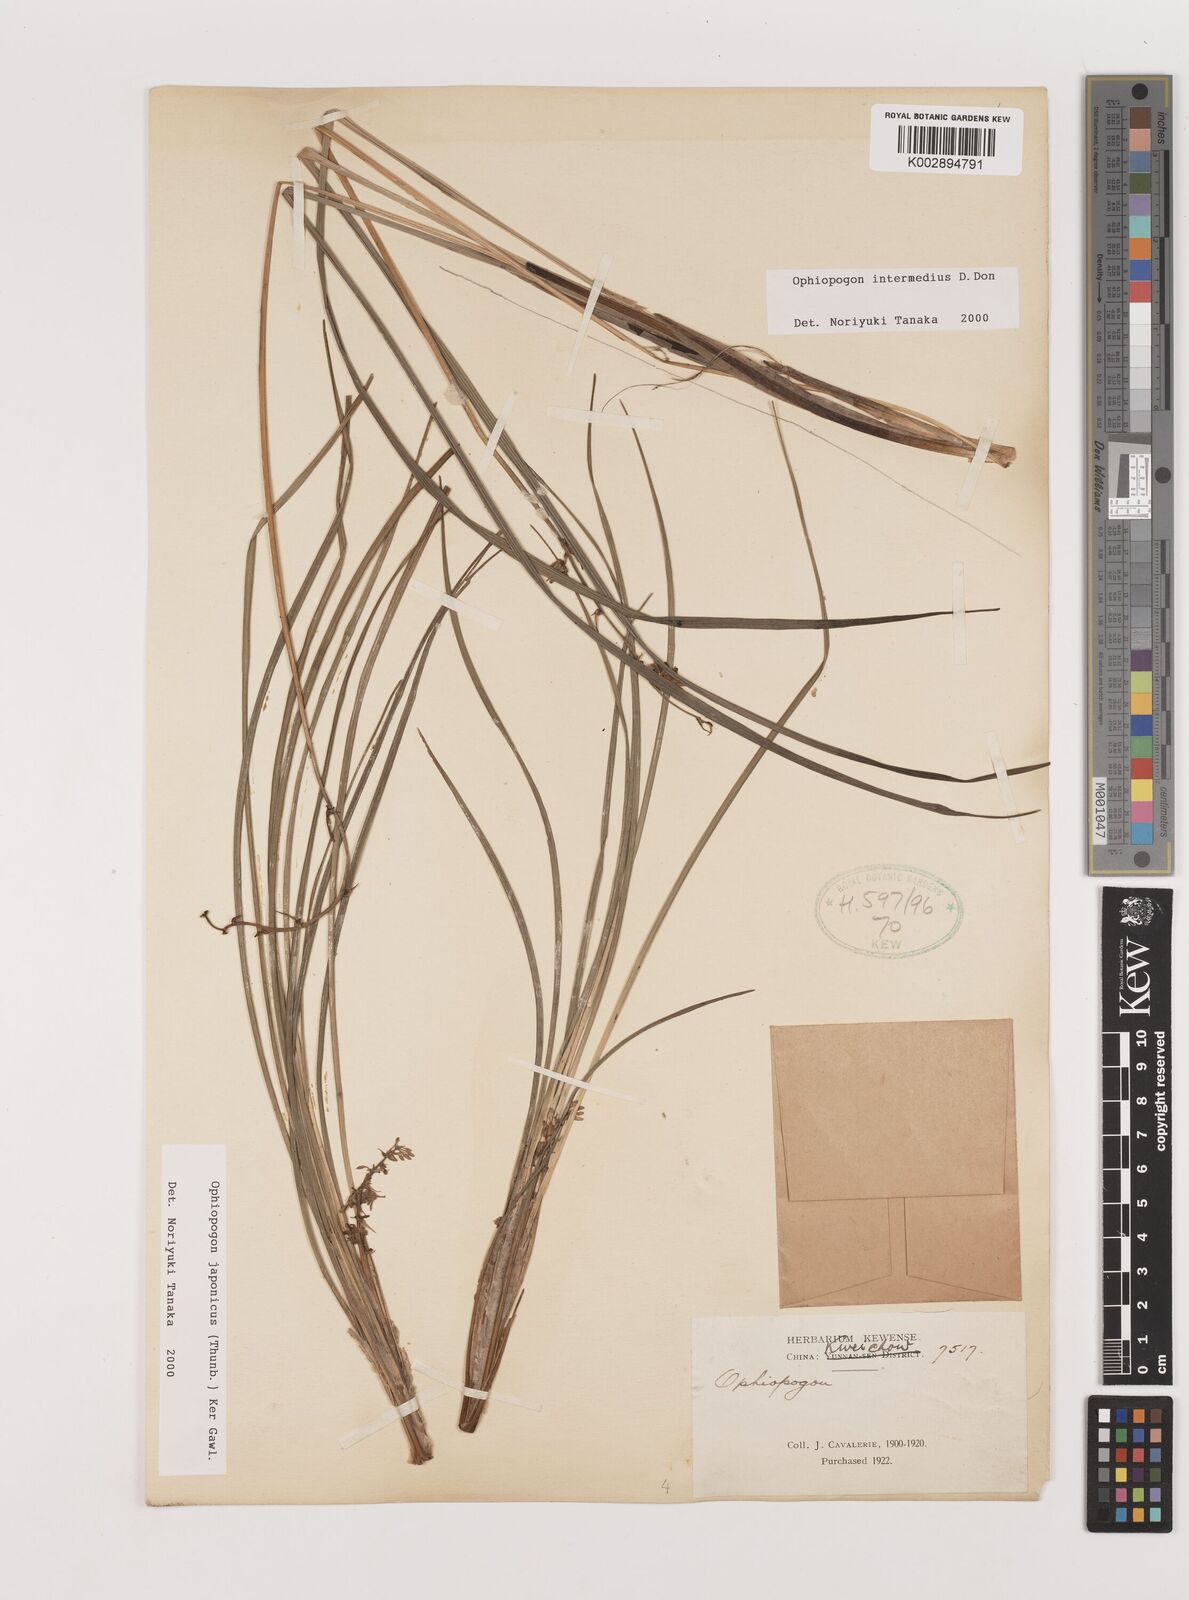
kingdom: Plantae
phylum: Tracheophyta
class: Liliopsida
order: Asparagales
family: Asparagaceae
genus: Ophiopogon
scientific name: Ophiopogon japonicus
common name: Dwarf lilyturf
